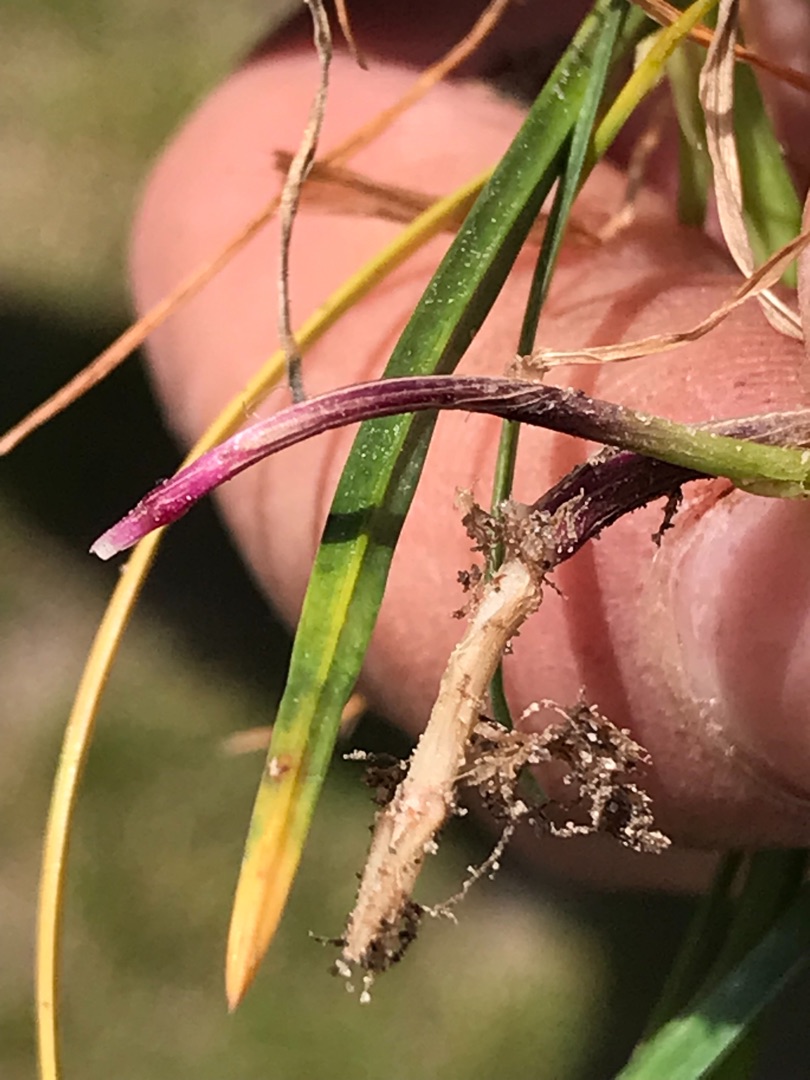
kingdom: Plantae
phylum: Tracheophyta
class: Liliopsida
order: Poales
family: Poaceae
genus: Lolium
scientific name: Lolium perenne
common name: Almindelig rajgræs
